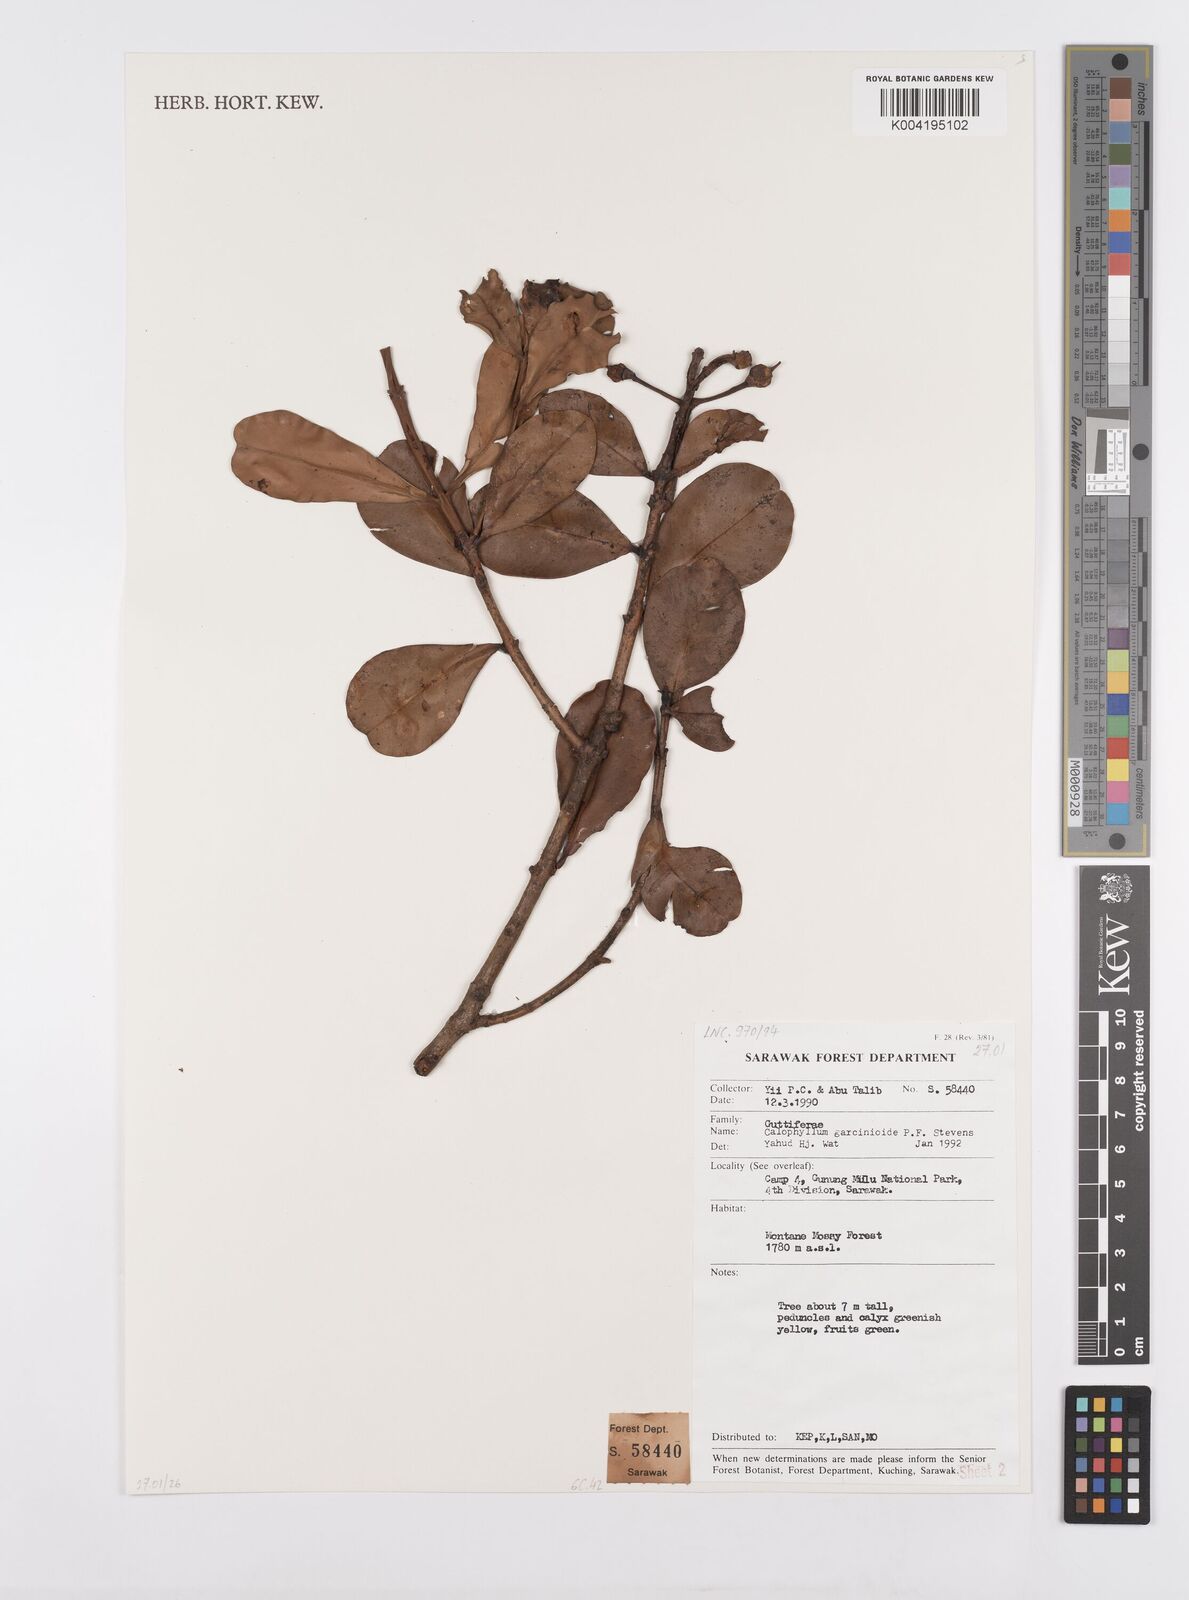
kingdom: Plantae
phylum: Tracheophyta
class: Magnoliopsida
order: Malpighiales
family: Calophyllaceae
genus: Calophyllum
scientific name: Calophyllum garcinioides
